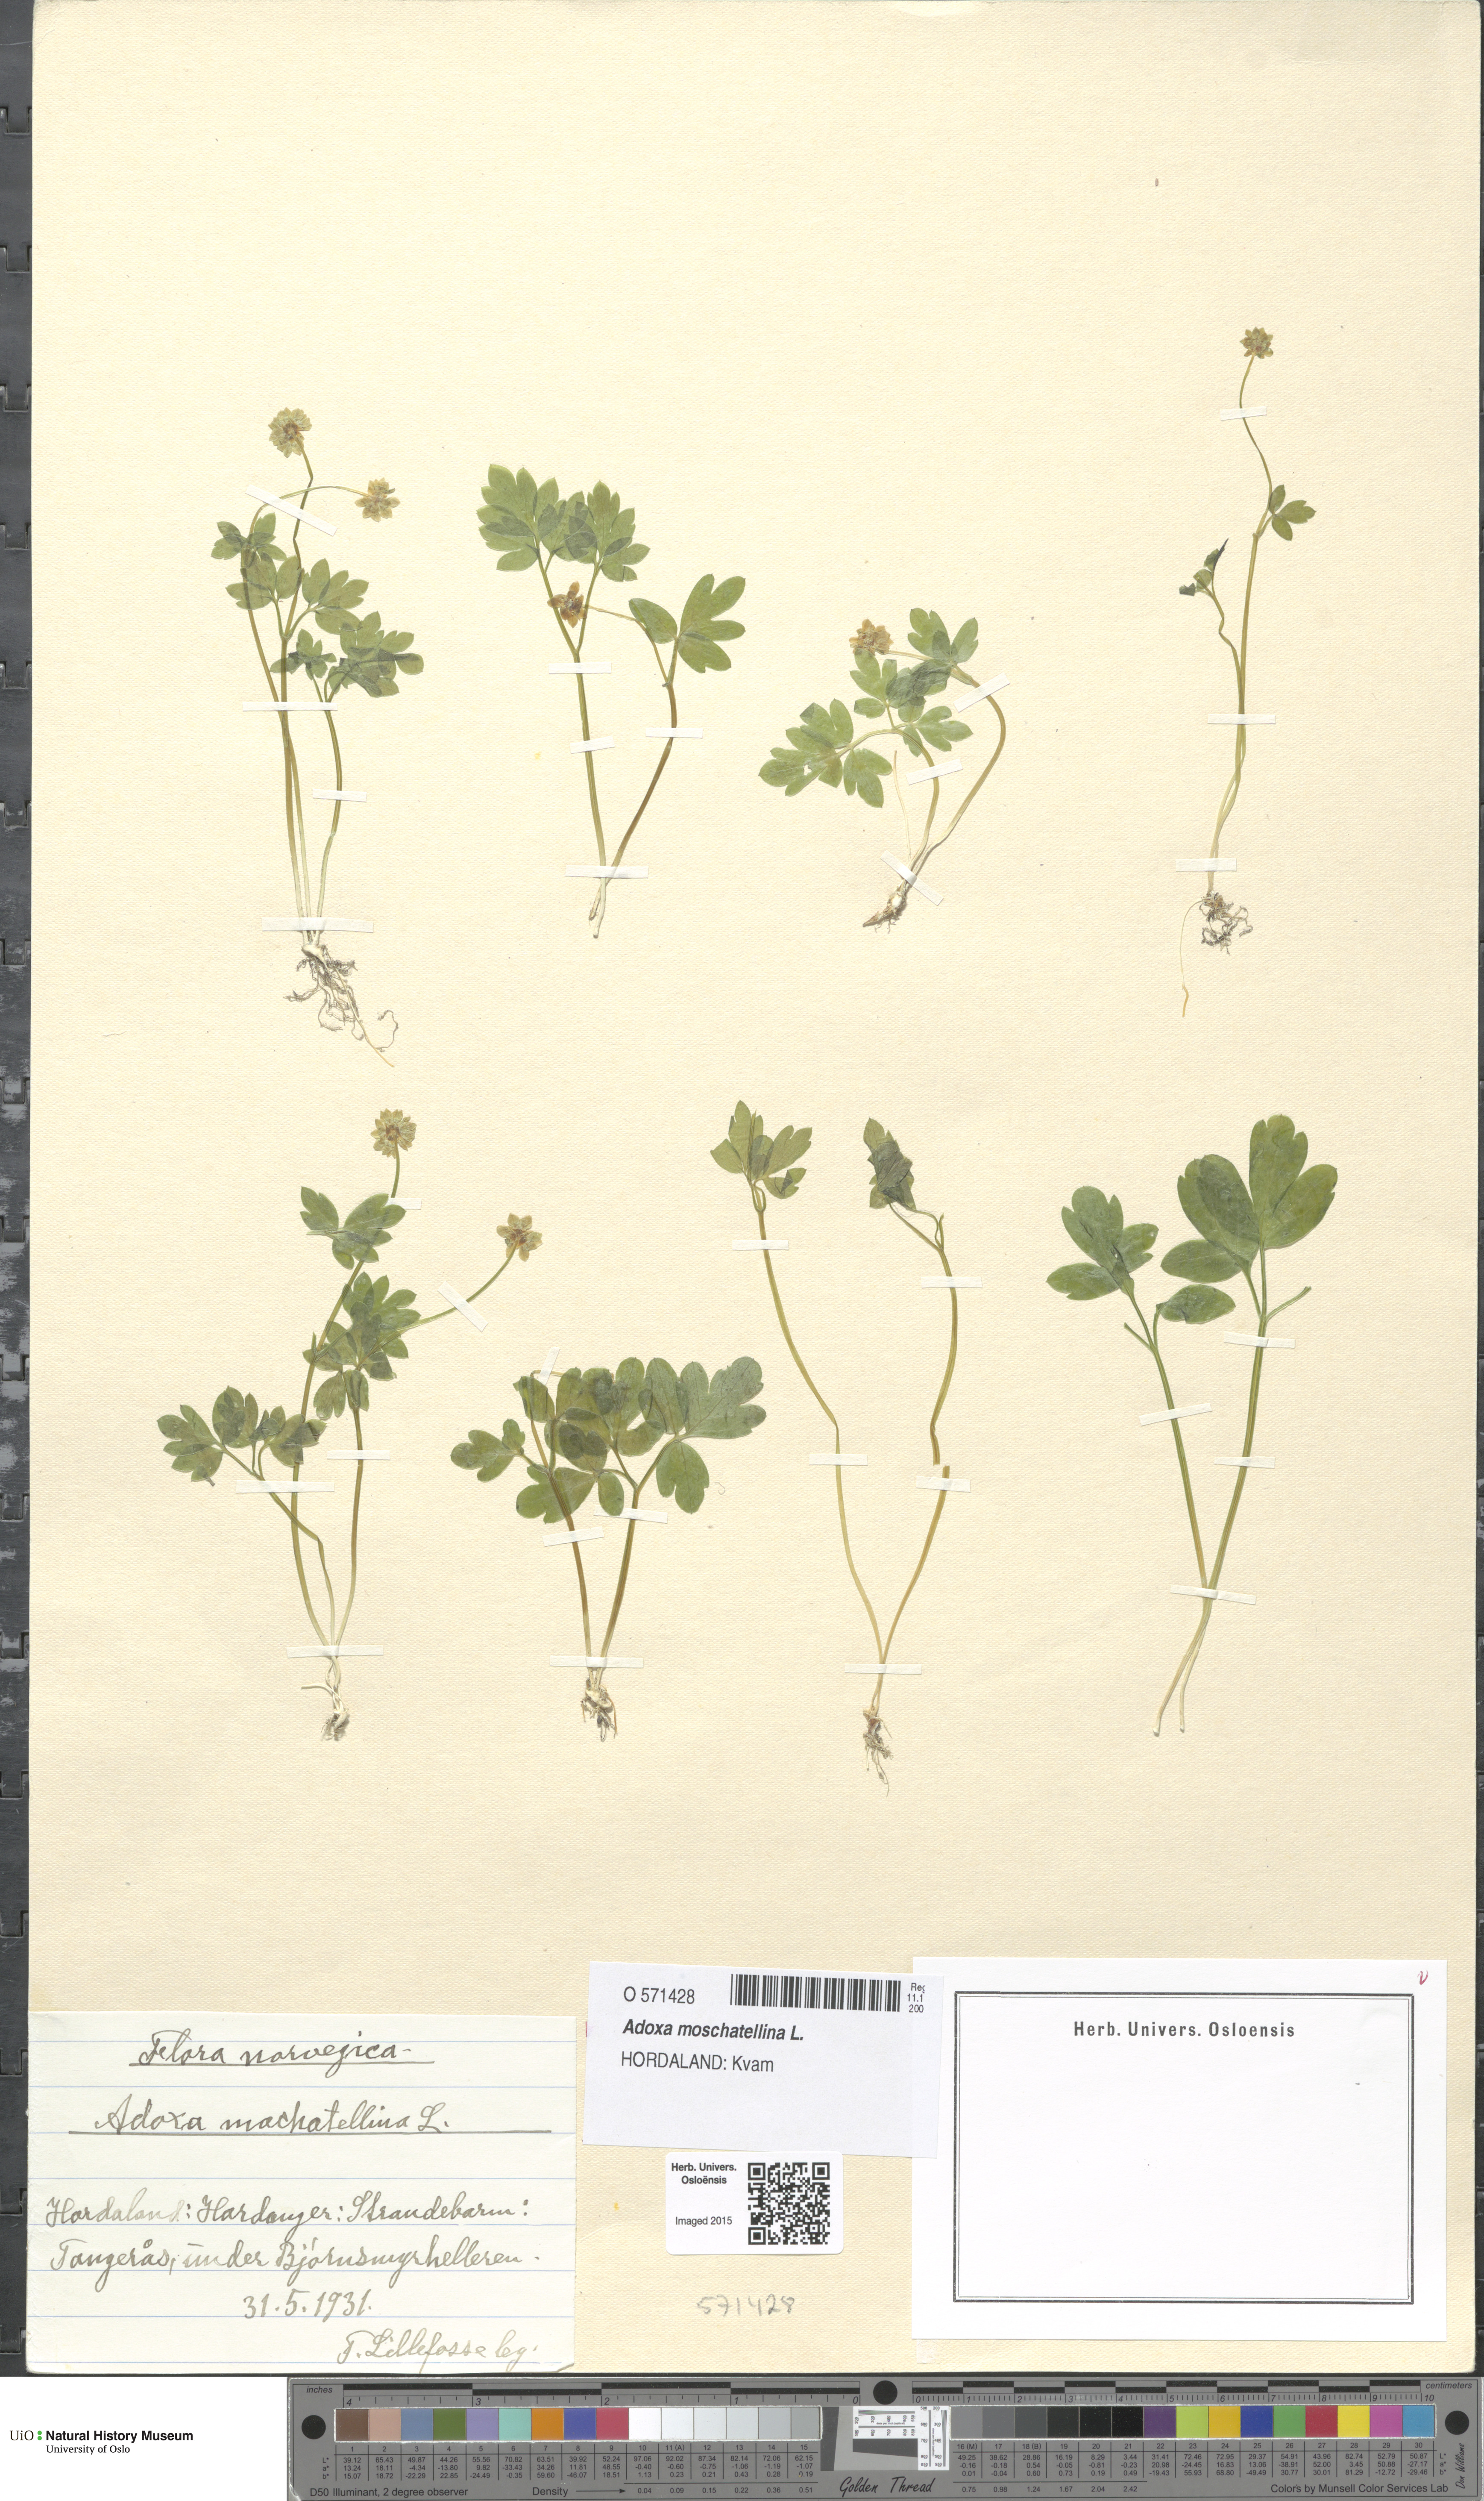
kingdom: Plantae
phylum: Tracheophyta
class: Magnoliopsida
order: Dipsacales
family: Viburnaceae
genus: Adoxa
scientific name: Adoxa moschatellina
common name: Moschatel
